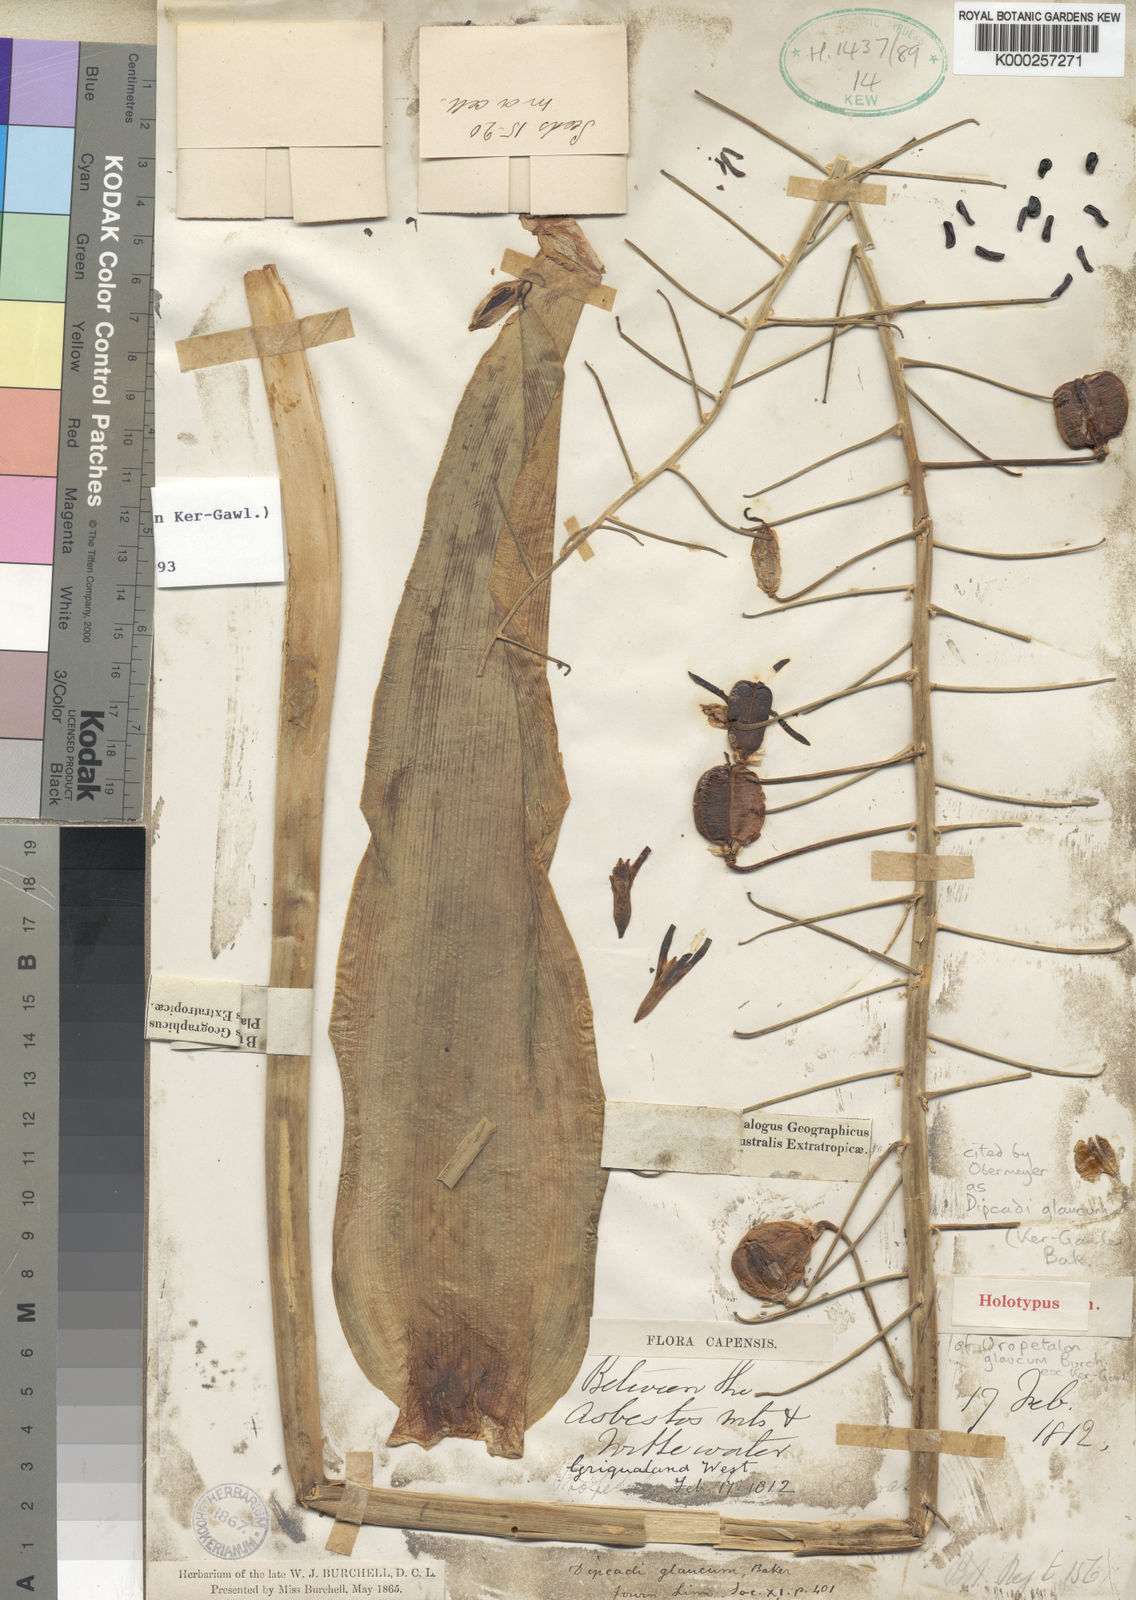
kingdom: Plantae
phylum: Tracheophyta
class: Liliopsida
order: Asparagales
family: Asparagaceae
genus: Dipcadi
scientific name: Dipcadi glaucum
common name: Wild onion
